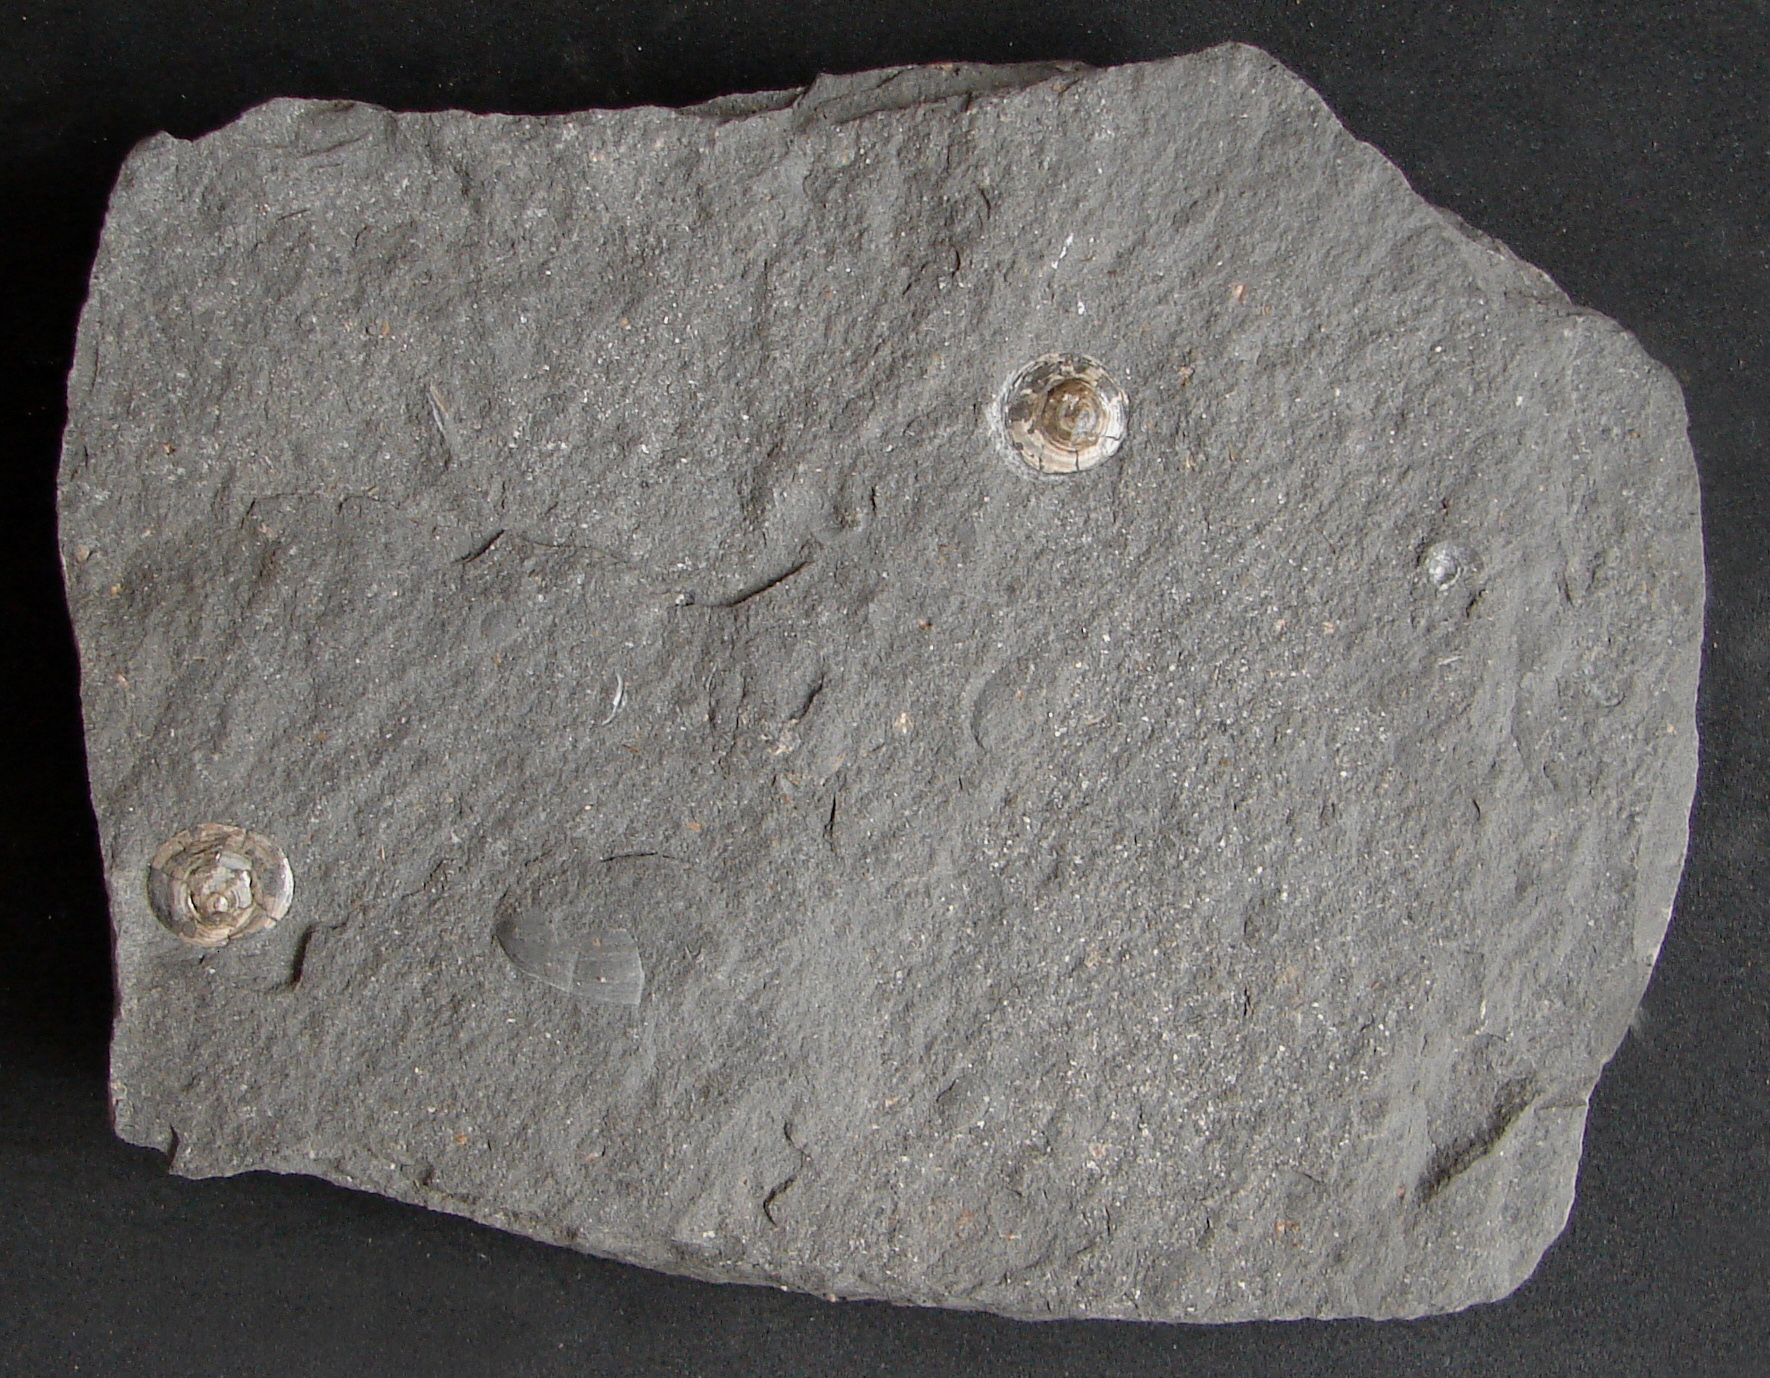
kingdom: Animalia
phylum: Brachiopoda
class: Lingulata
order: Lingulida
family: Discinidae
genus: Discinisca
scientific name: Discinisca
